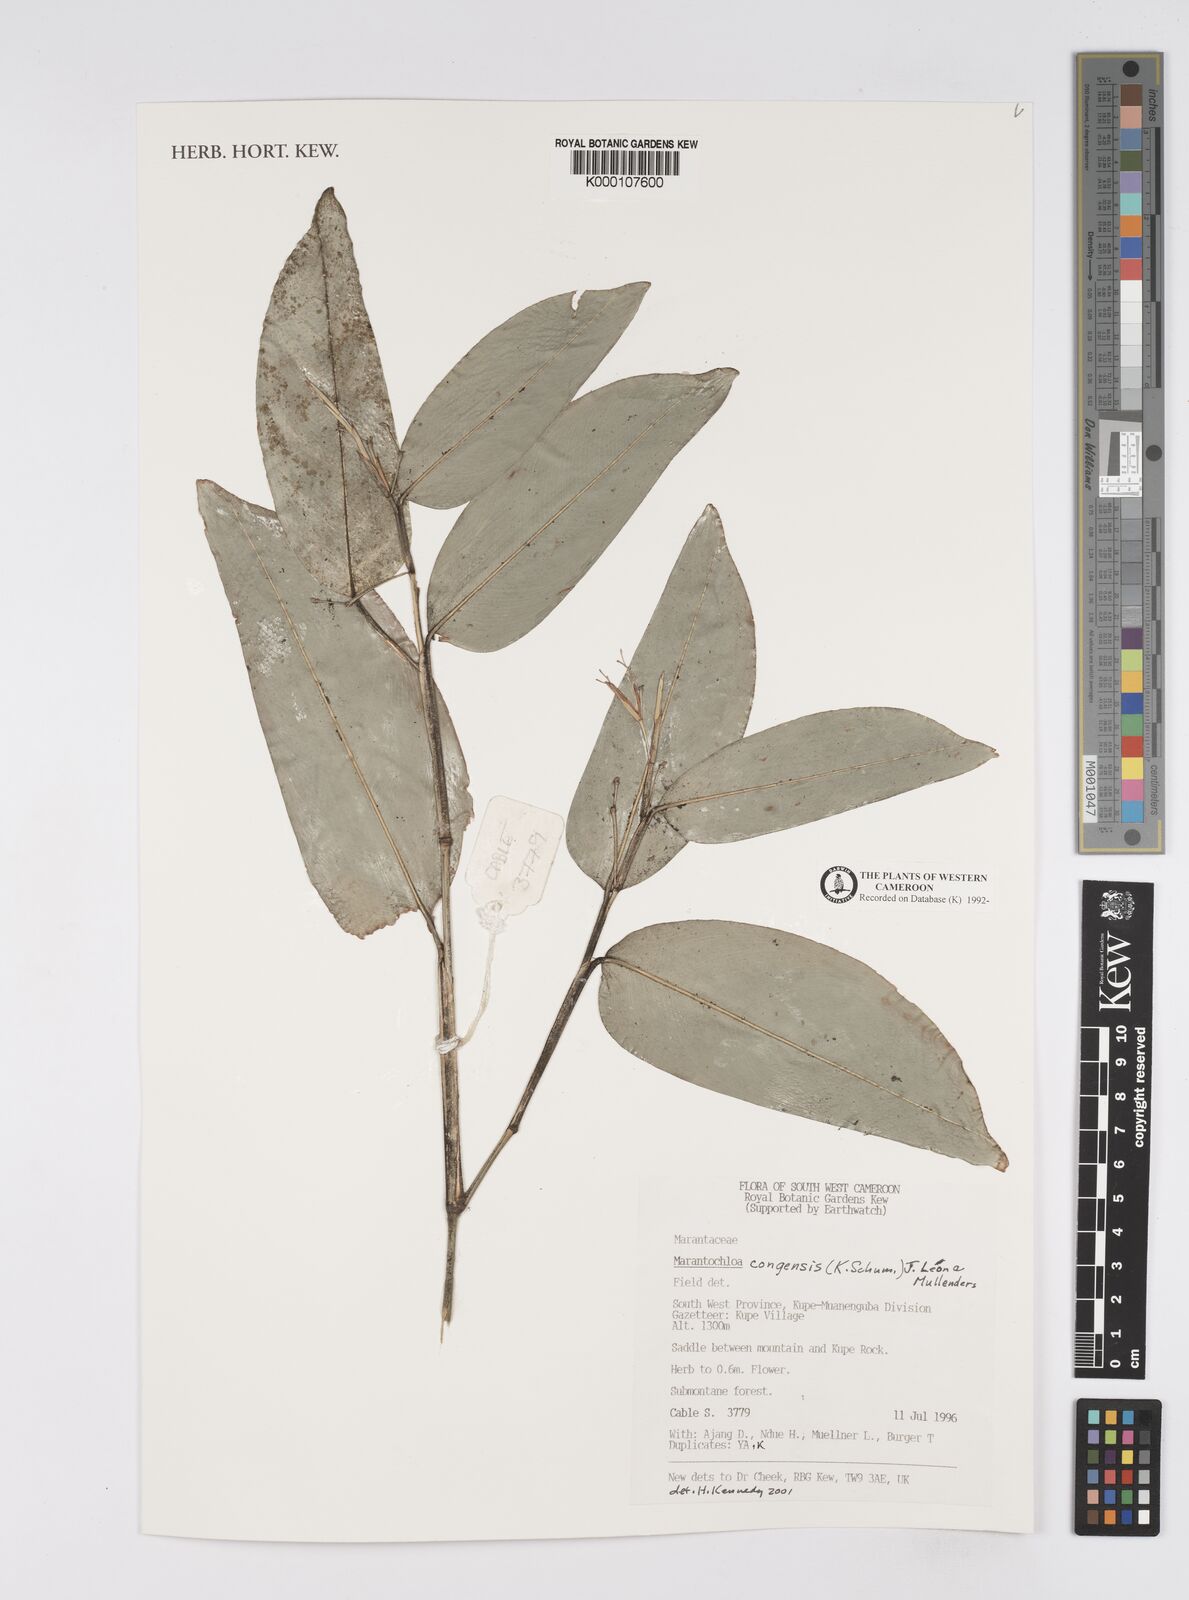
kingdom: Plantae
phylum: Tracheophyta
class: Liliopsida
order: Zingiberales
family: Marantaceae
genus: Marantochloa
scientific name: Marantochloa
